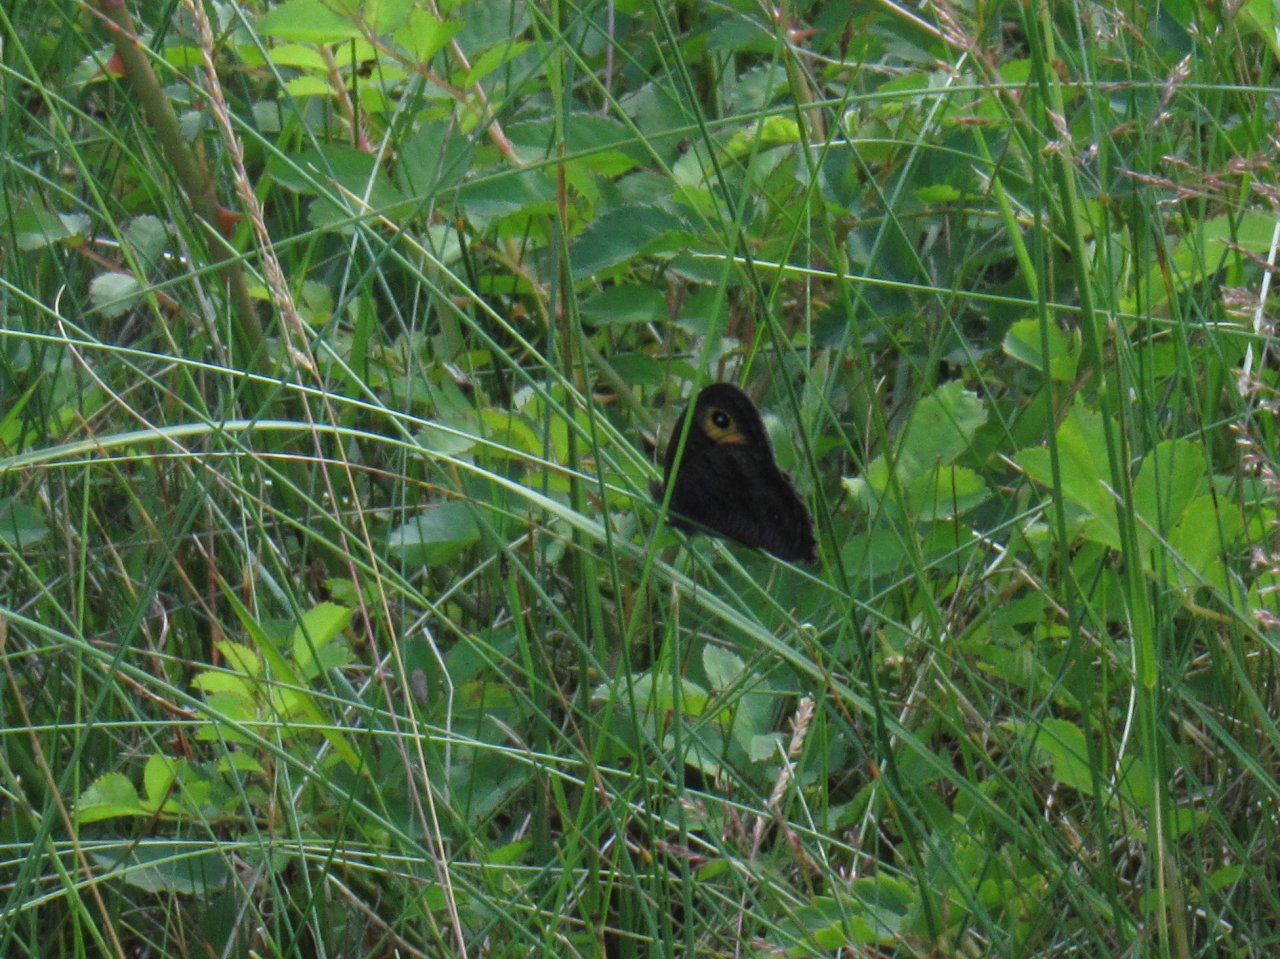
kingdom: Animalia
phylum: Arthropoda
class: Insecta
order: Lepidoptera
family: Nymphalidae
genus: Cercyonis
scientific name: Cercyonis pegala
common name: Common Wood-Nymph
